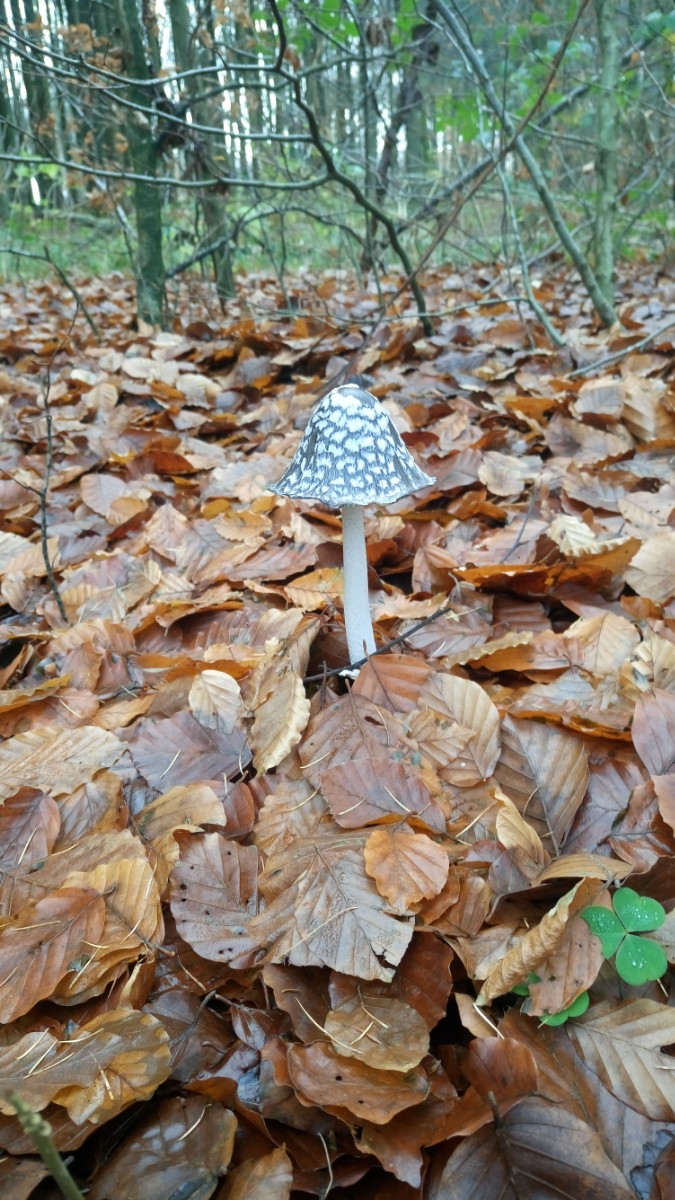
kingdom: Fungi
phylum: Basidiomycota
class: Agaricomycetes
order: Agaricales
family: Psathyrellaceae
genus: Coprinopsis
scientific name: Coprinopsis picacea
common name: skade-blækhat
